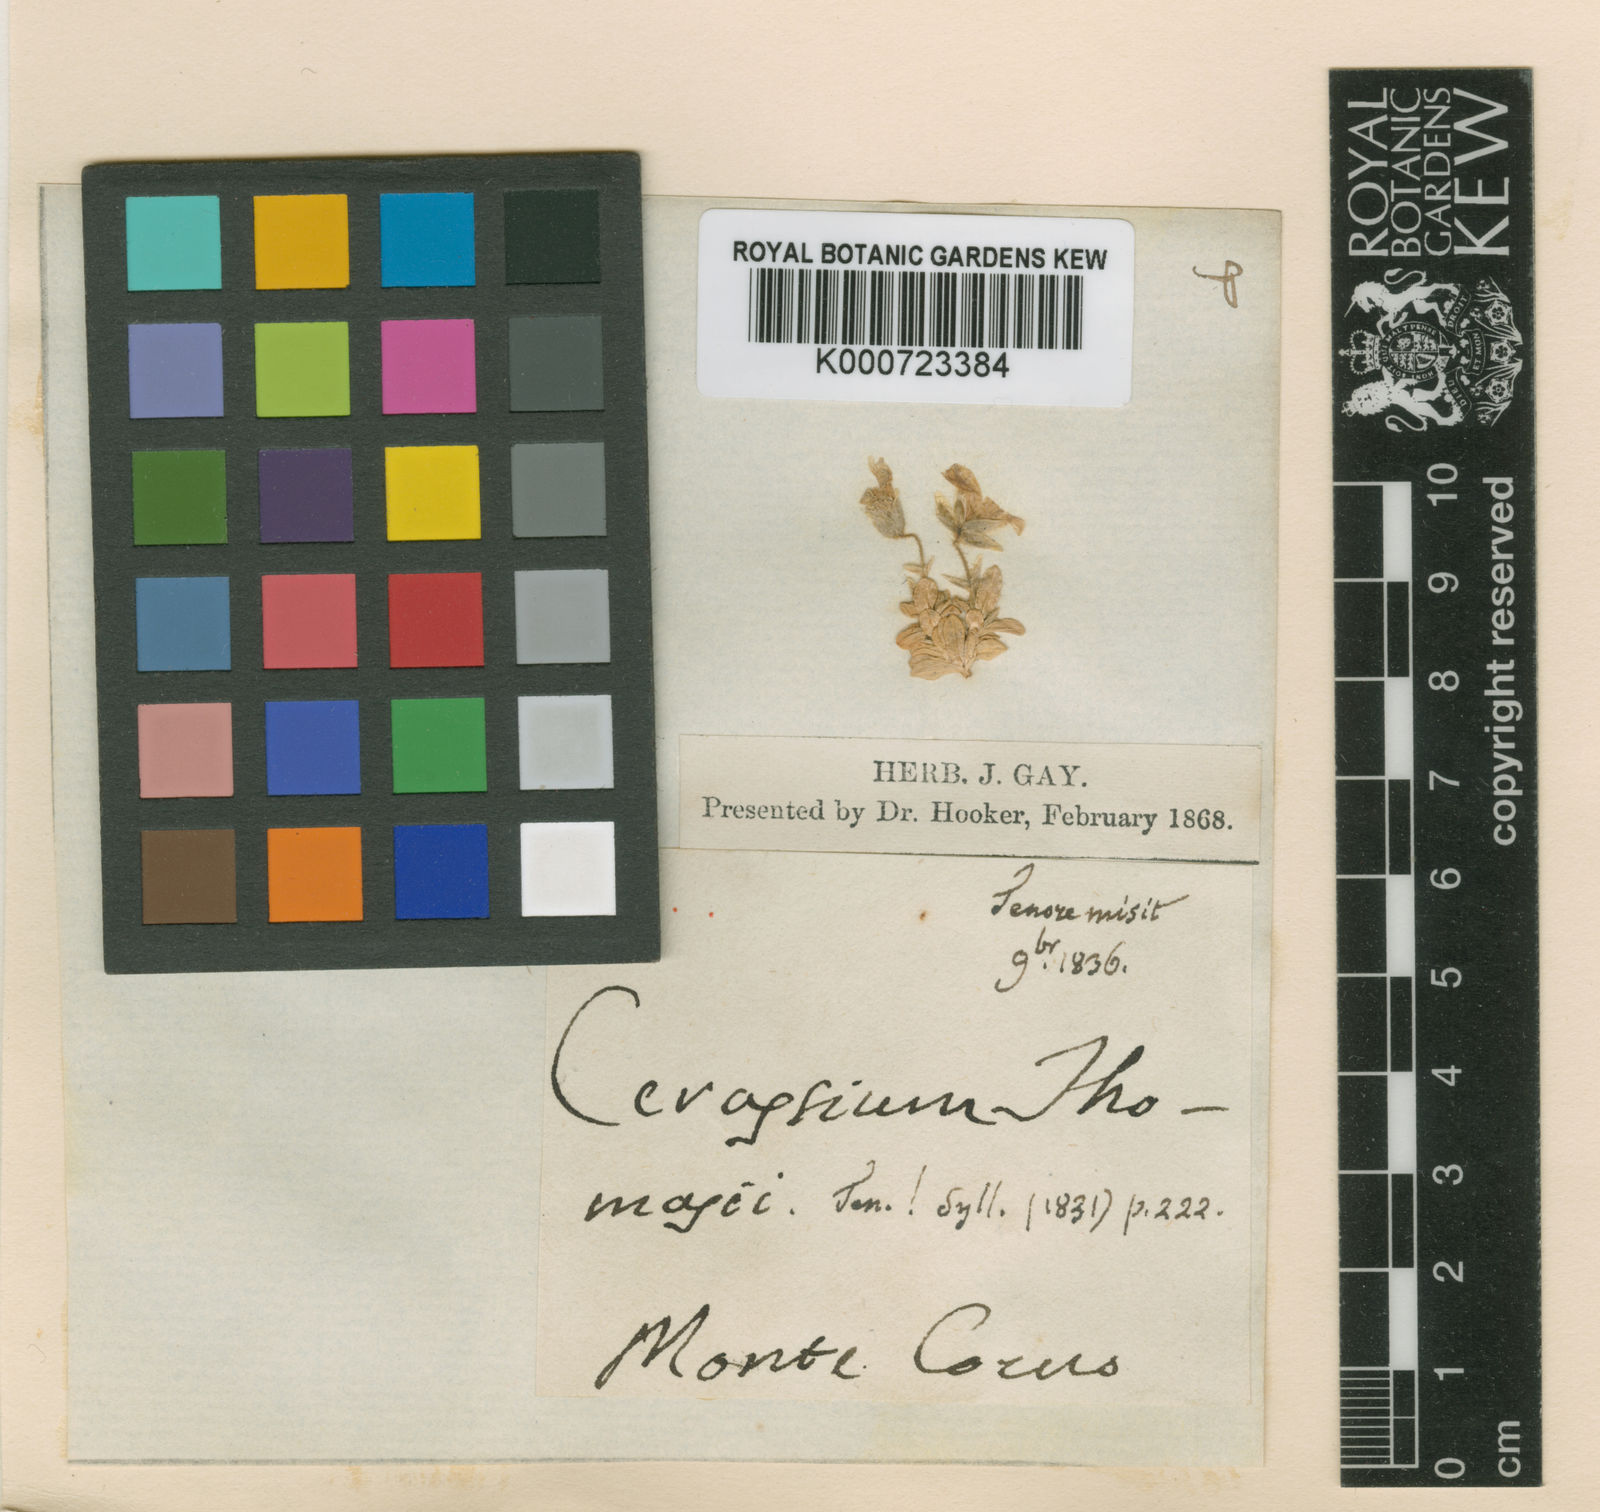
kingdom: Plantae
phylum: Tracheophyta
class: Magnoliopsida
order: Caryophyllales
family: Caryophyllaceae
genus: Cerastium
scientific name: Cerastium arvense
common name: Field mouse-ear
